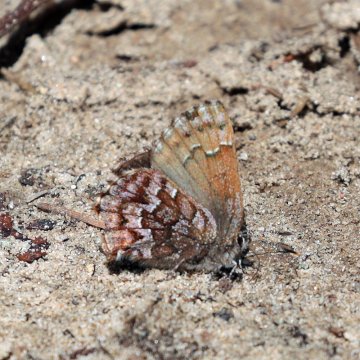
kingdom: Animalia
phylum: Arthropoda
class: Insecta
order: Lepidoptera
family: Lycaenidae
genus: Incisalia
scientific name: Incisalia niphon
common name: Eastern Pine Elfin
